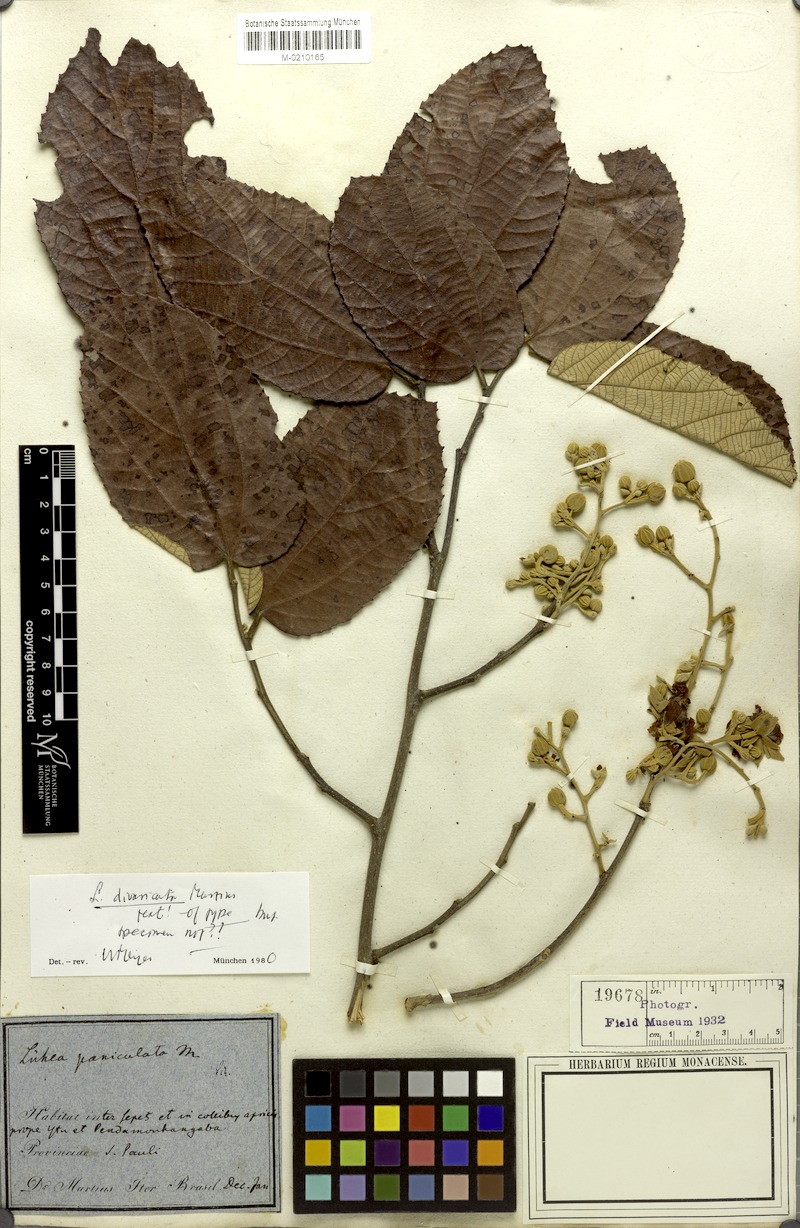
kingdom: Plantae
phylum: Tracheophyta
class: Magnoliopsida
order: Malvales
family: Malvaceae
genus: Luehea
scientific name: Luehea divaricata
